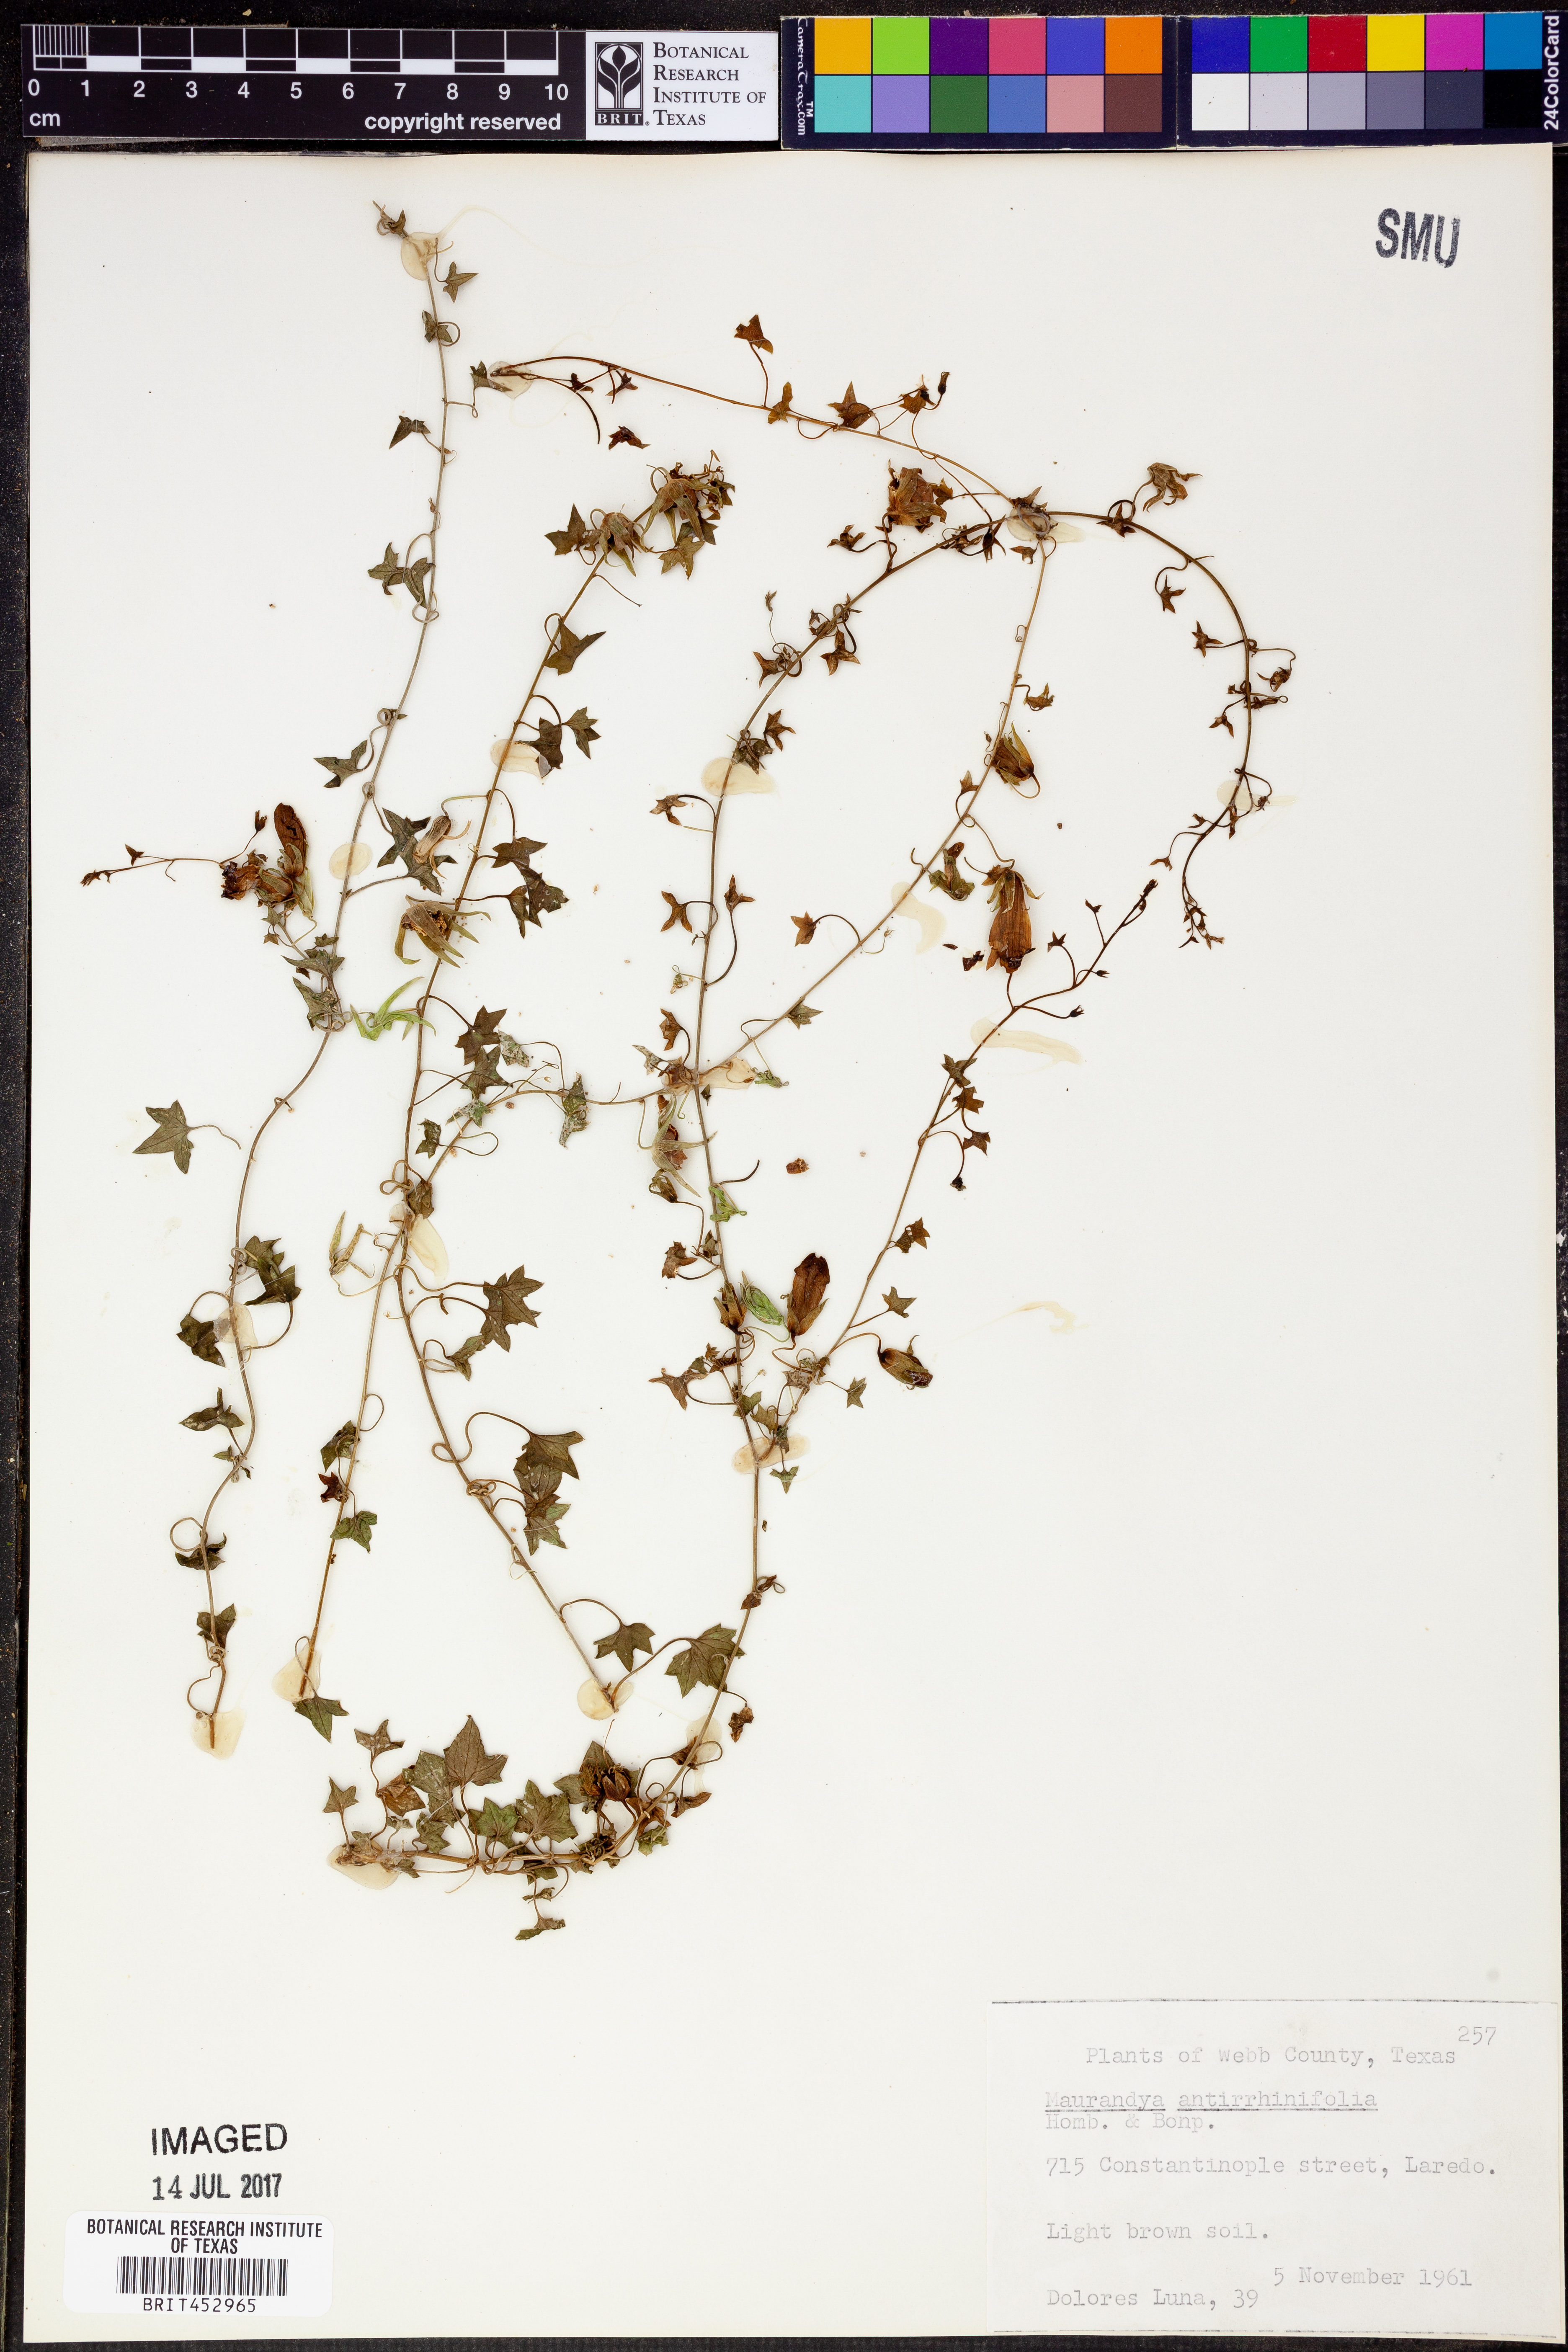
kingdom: Plantae
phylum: Tracheophyta
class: Magnoliopsida
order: Lamiales
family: Plantaginaceae
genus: Maurandella
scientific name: Maurandella antirrhiniflora
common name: Violet twining-snapdragon
